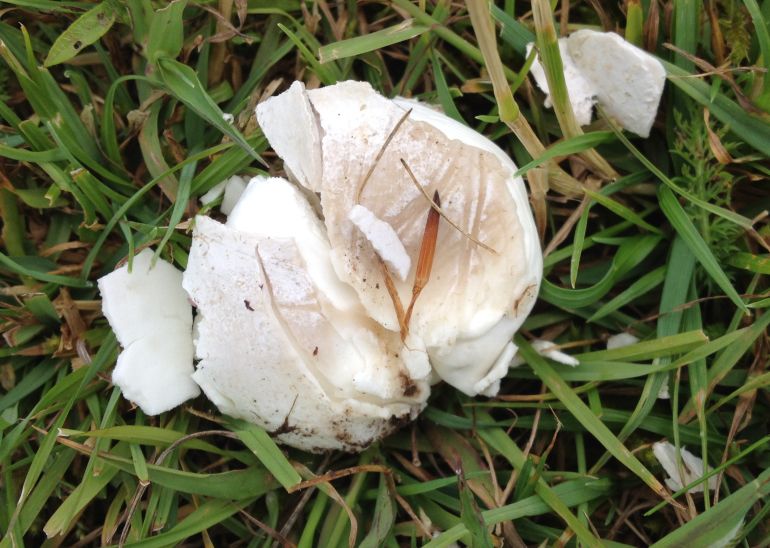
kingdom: Fungi
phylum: Basidiomycota
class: Agaricomycetes
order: Agaricales
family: Lycoperdaceae
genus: Bovista
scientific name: Bovista plumbea
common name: blygrå bovist
